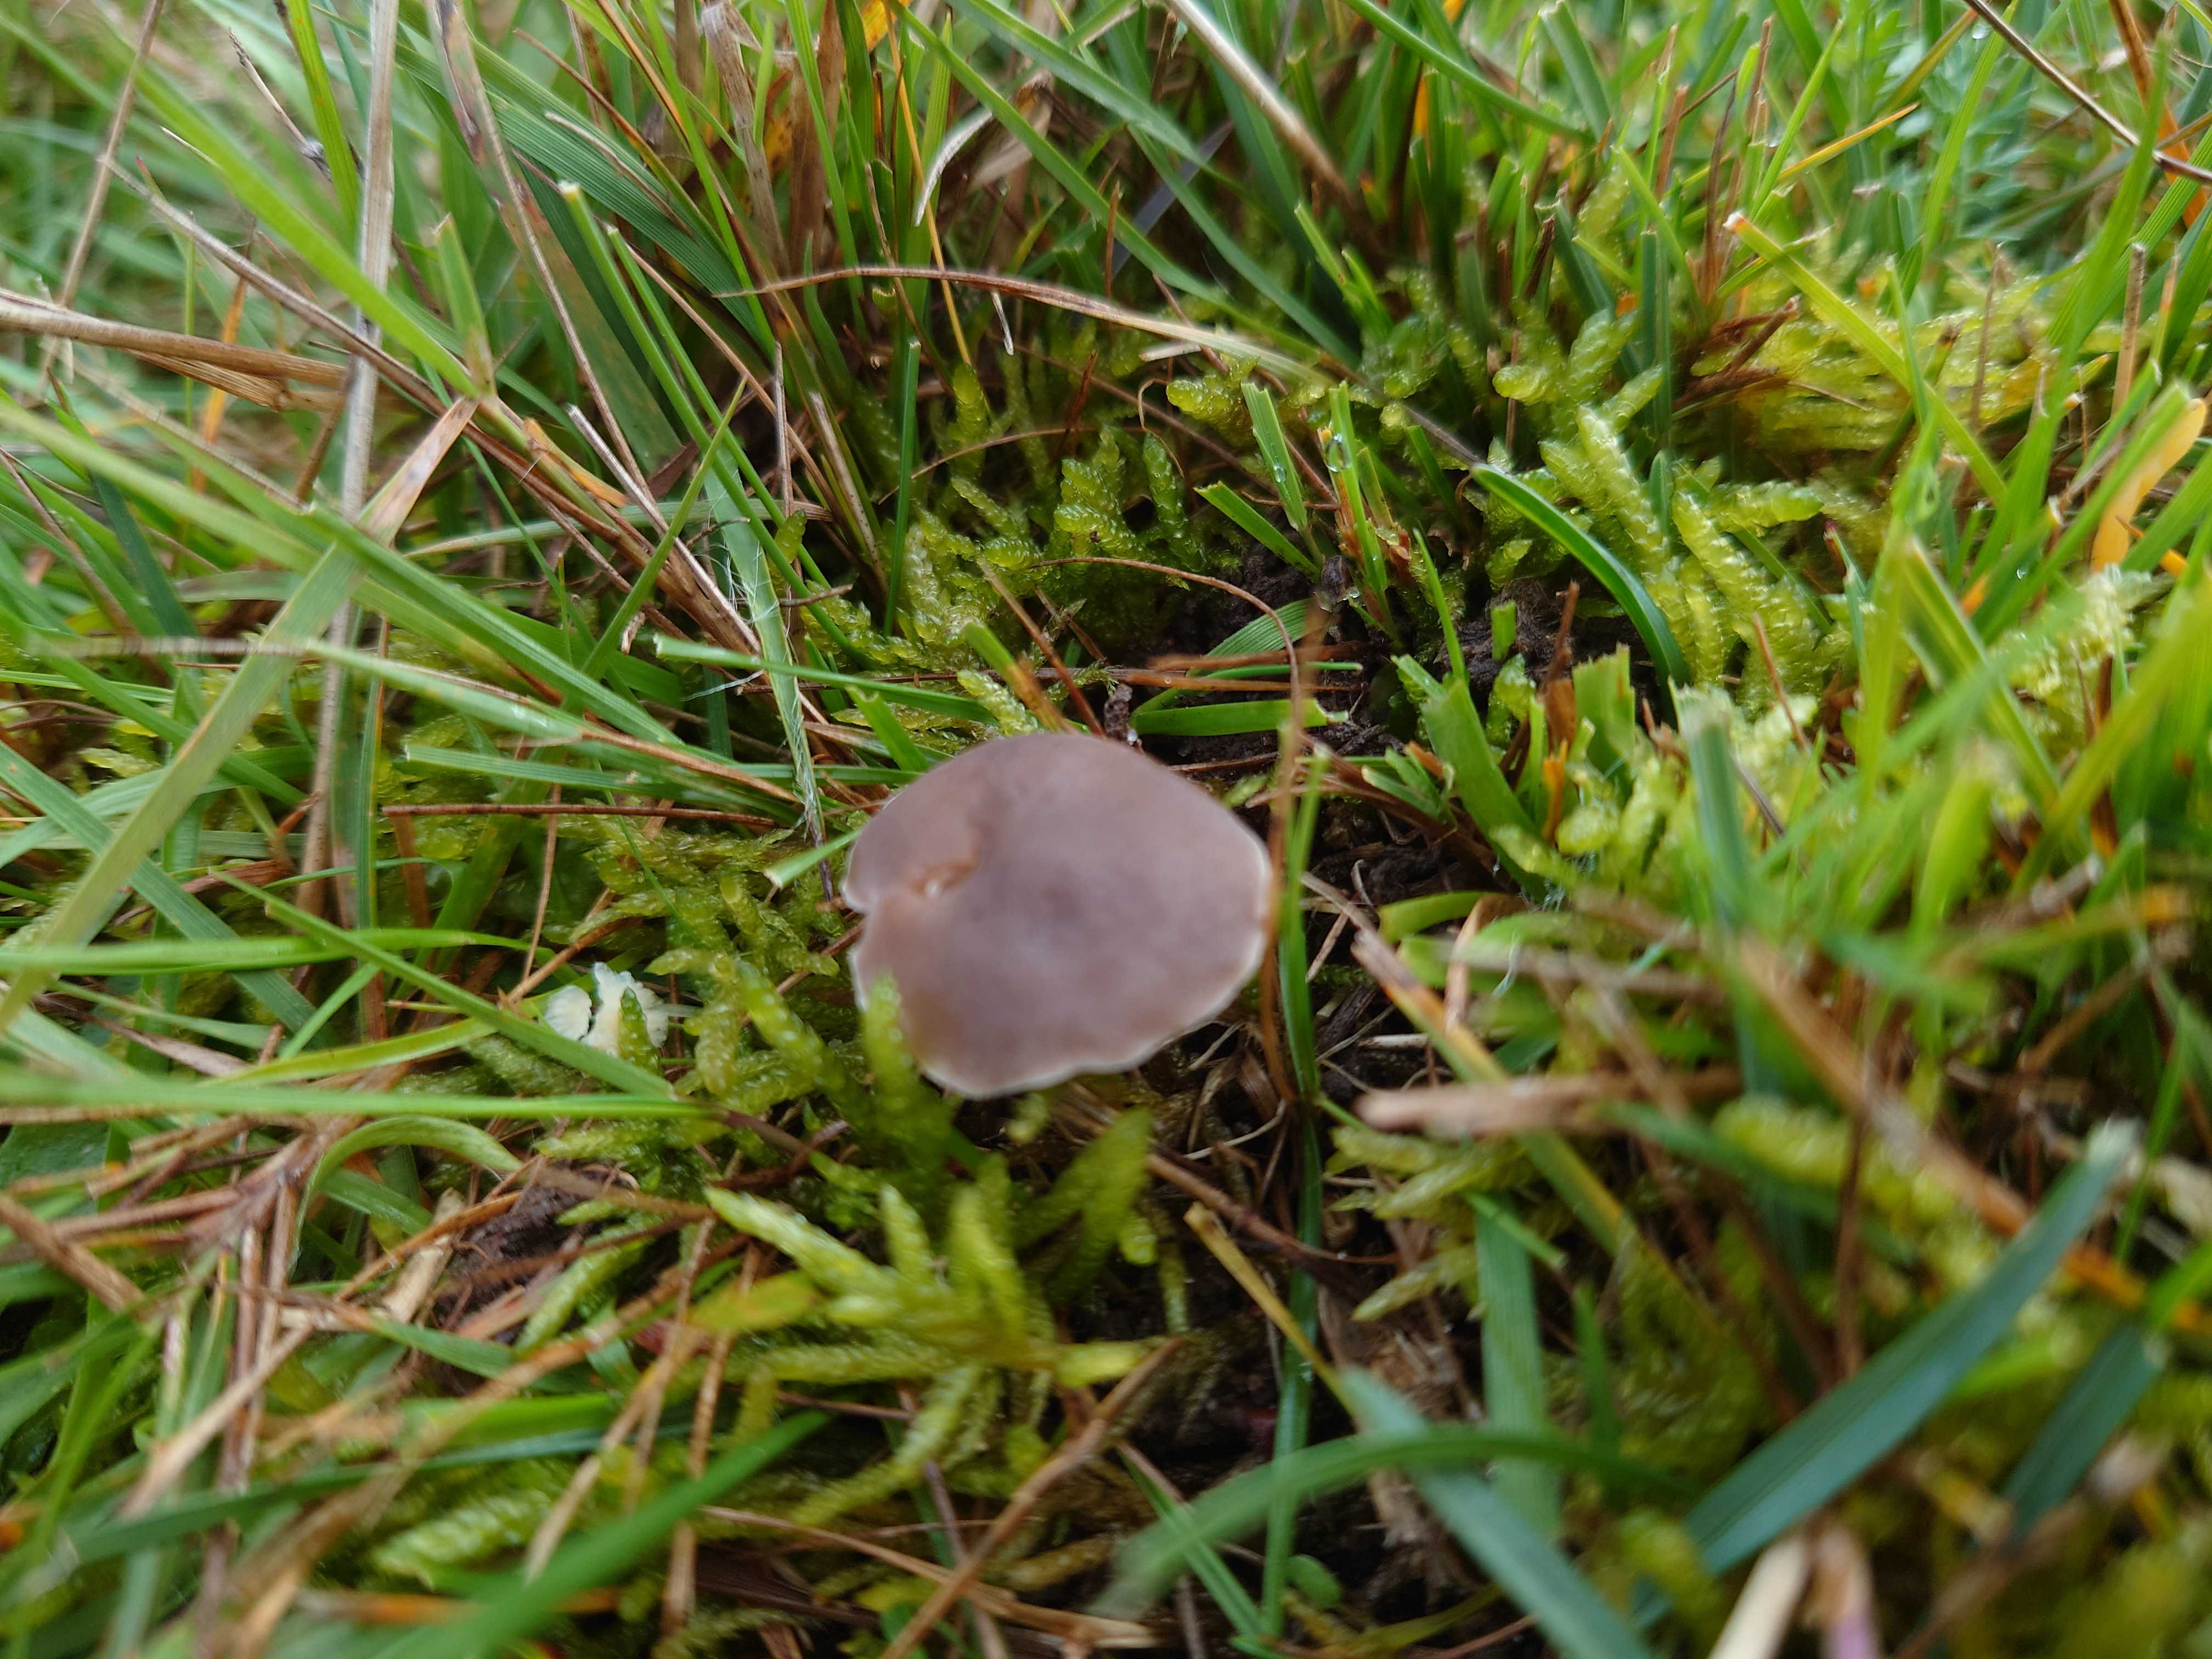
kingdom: Fungi
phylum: Basidiomycota
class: Agaricomycetes
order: Agaricales
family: Tricholomataceae
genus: Dermoloma
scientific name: Dermoloma cuneifolium
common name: eng-nonnehat
